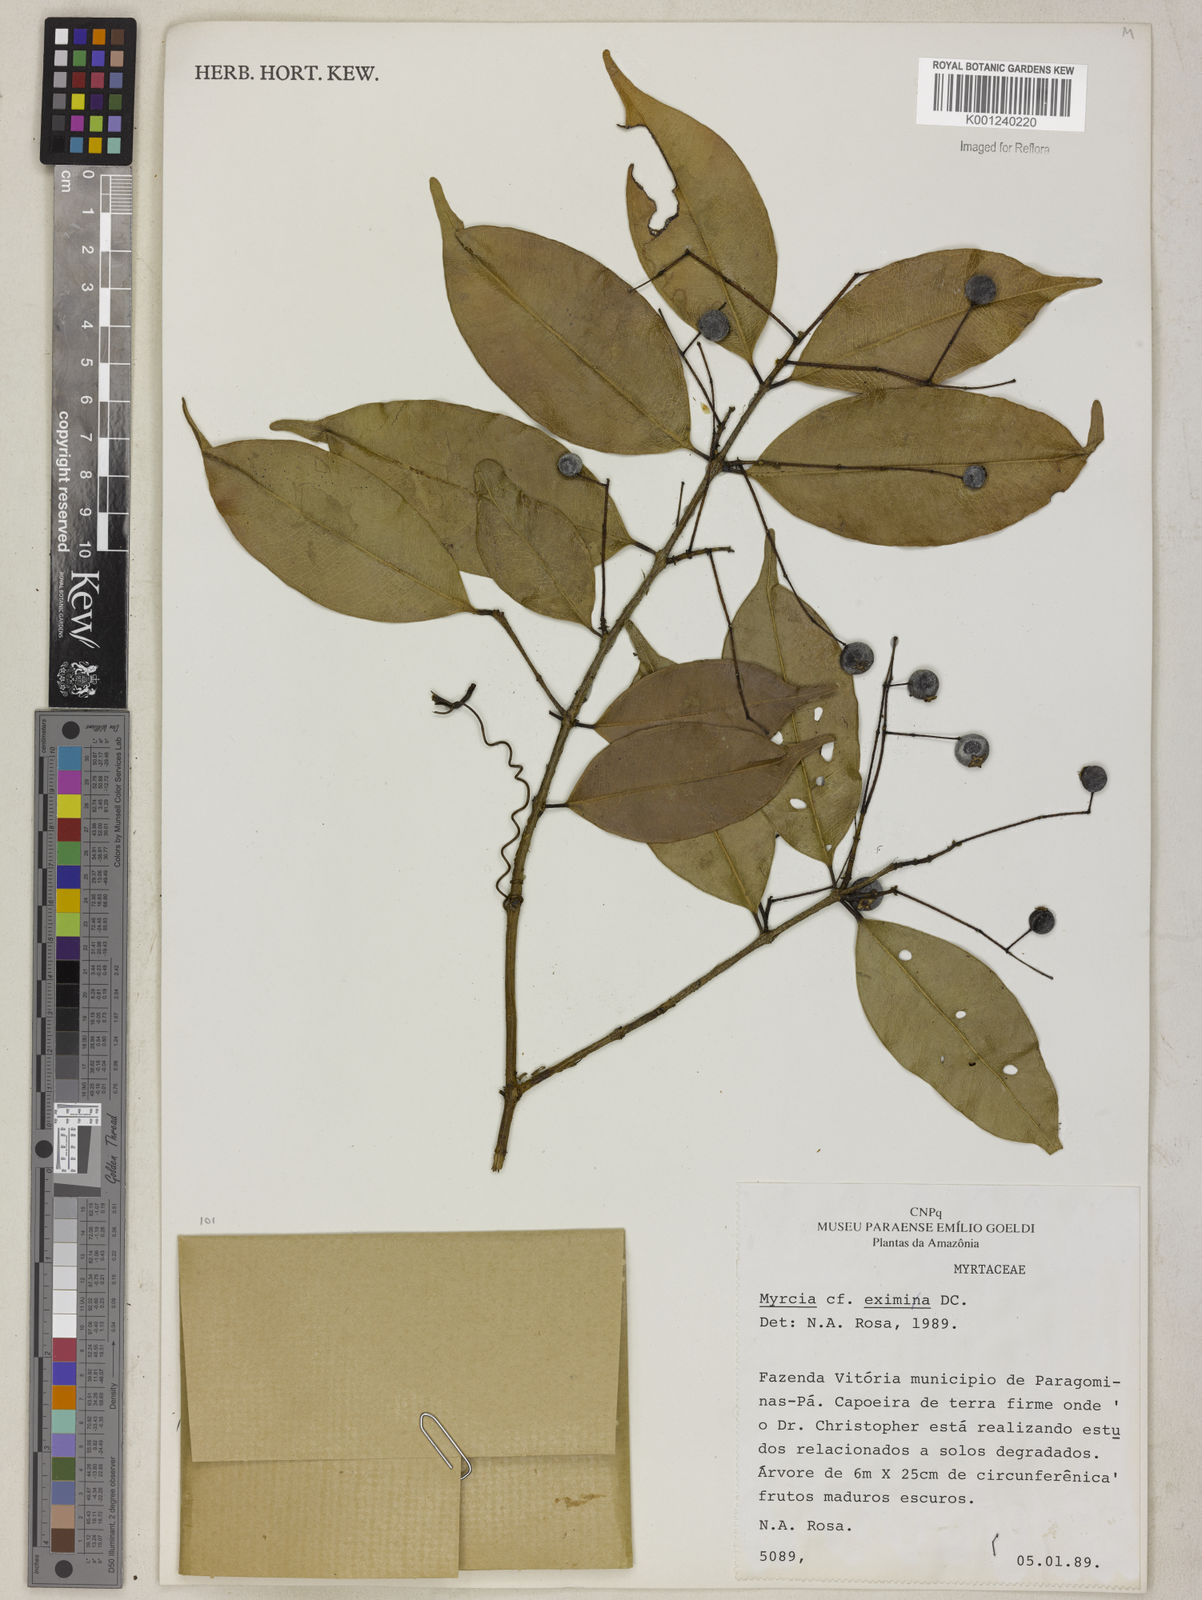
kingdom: Plantae
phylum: Tracheophyta
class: Magnoliopsida
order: Myrtales
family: Myrtaceae
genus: Myrcia
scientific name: Myrcia grandis
